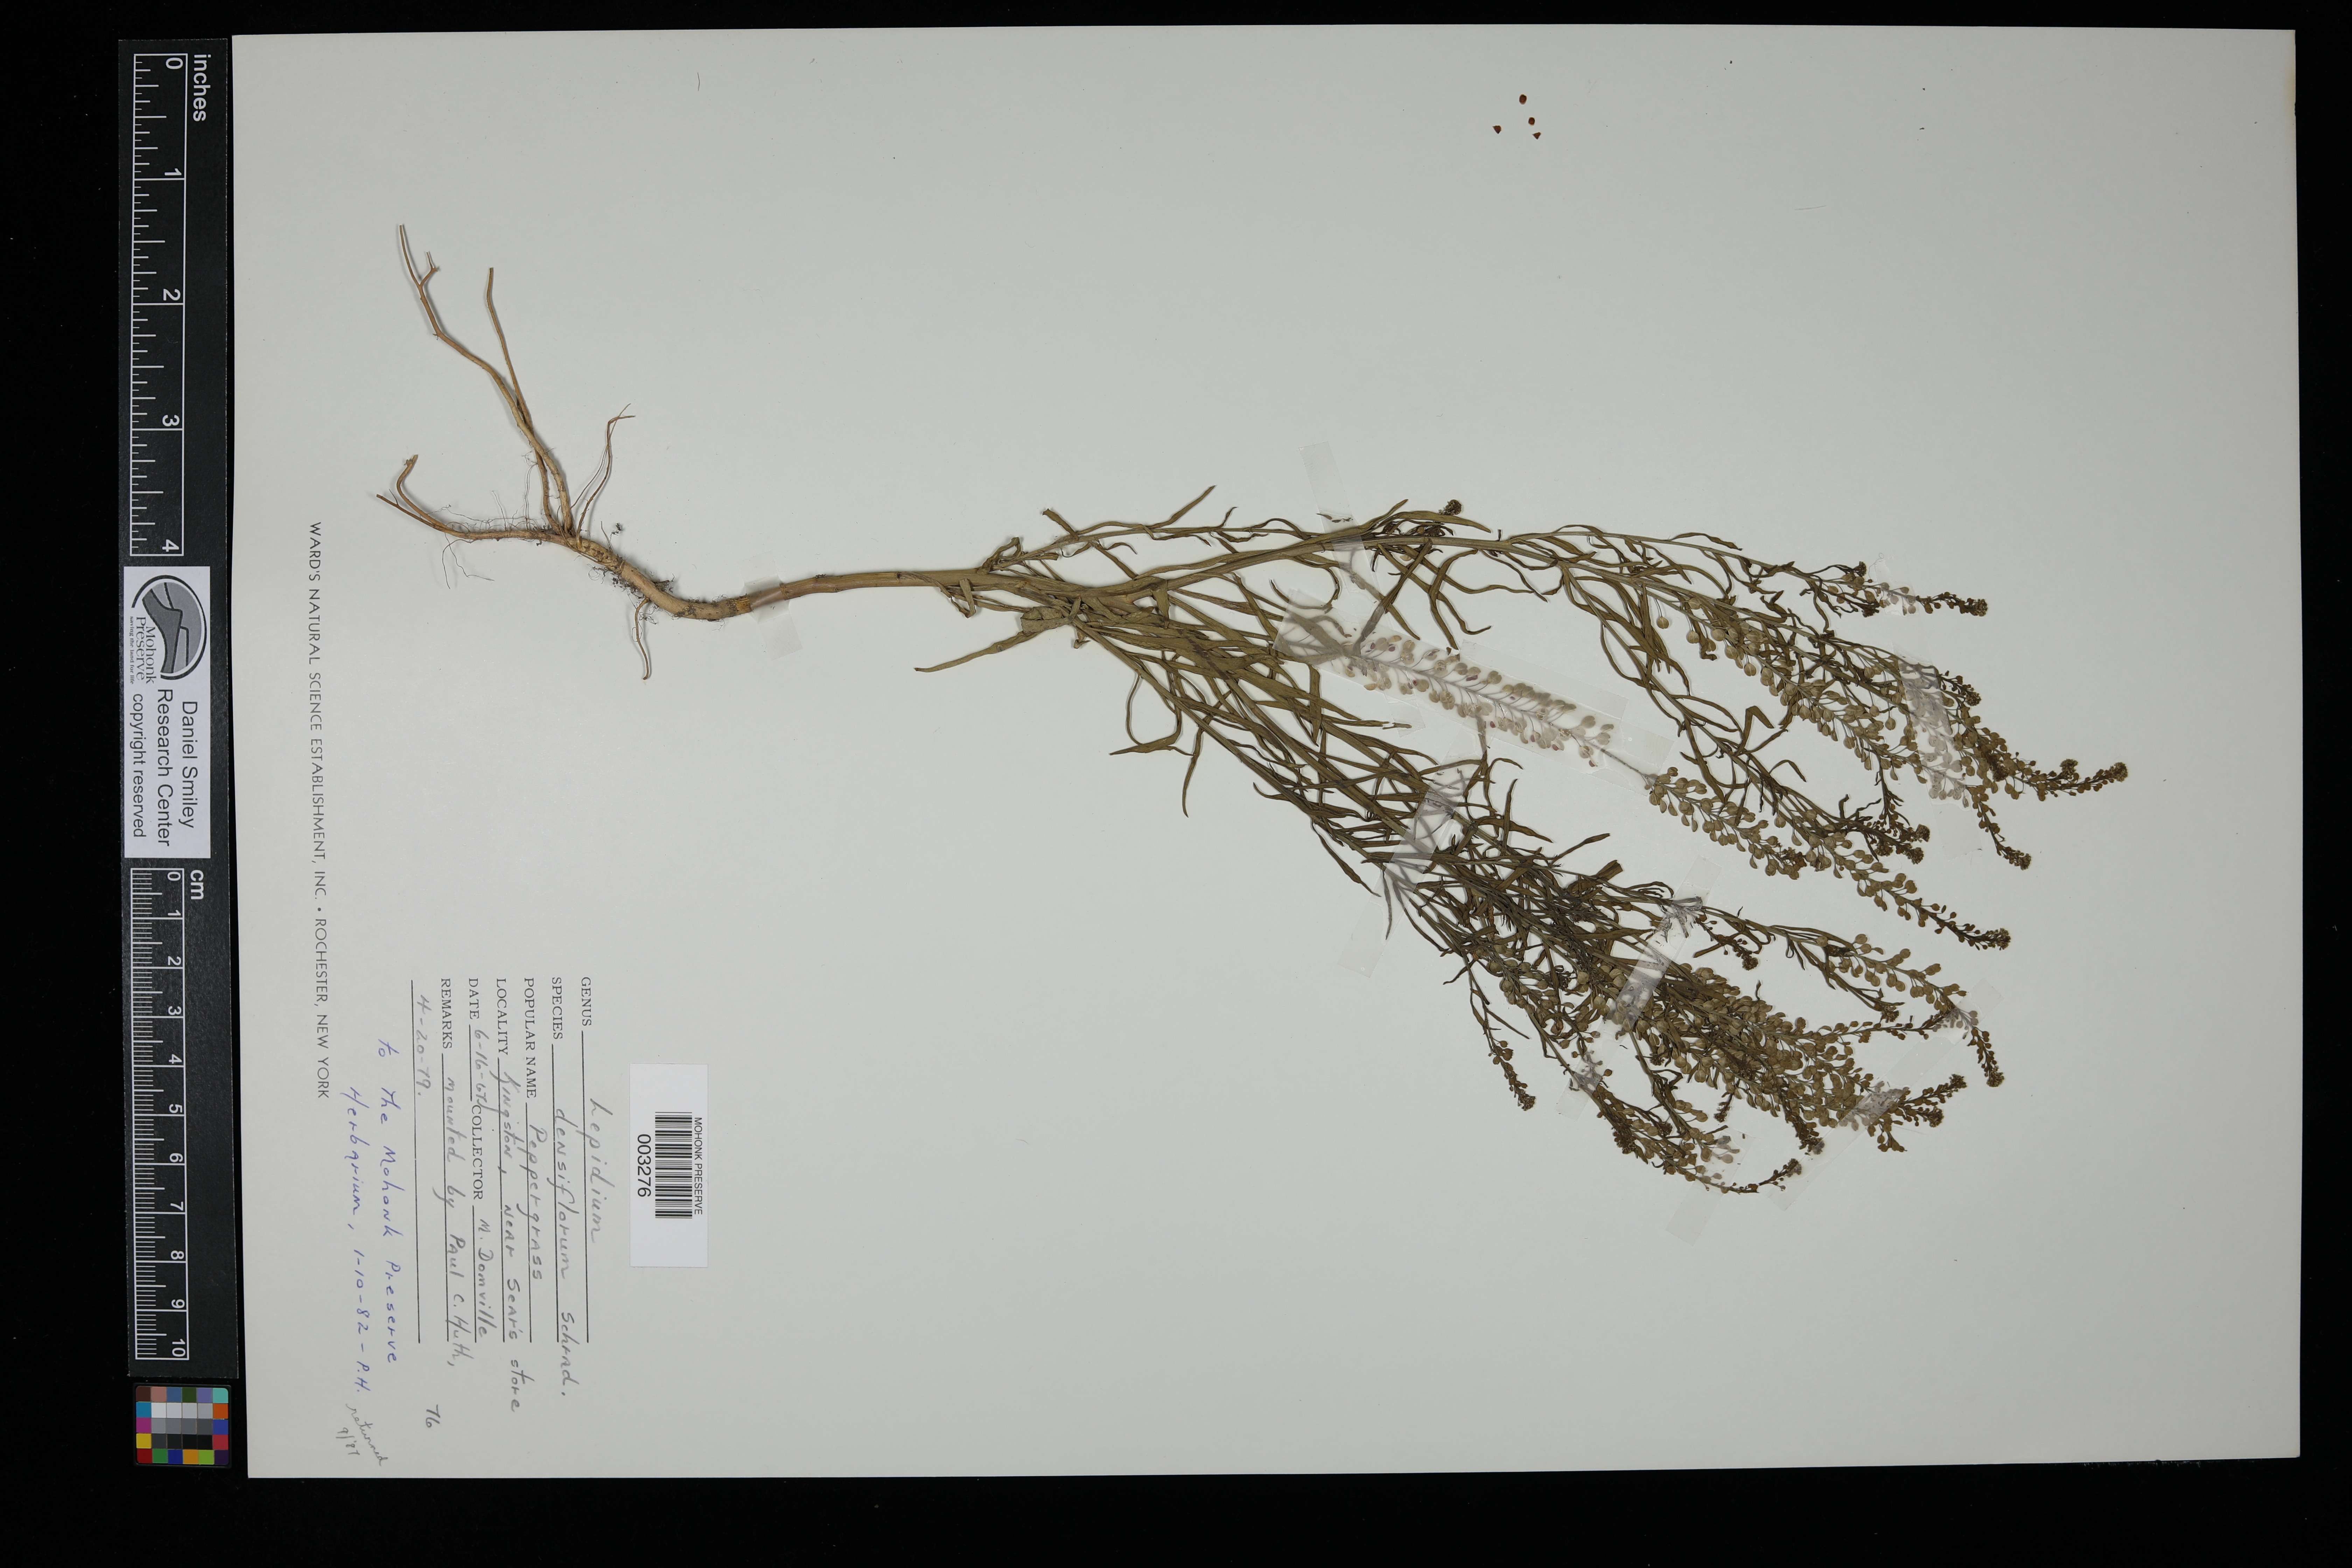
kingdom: Plantae
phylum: Tracheophyta
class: Magnoliopsida
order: Brassicales
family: Brassicaceae
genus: Lepidium
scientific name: Lepidium densiflorum
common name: Miner's pepperwort
